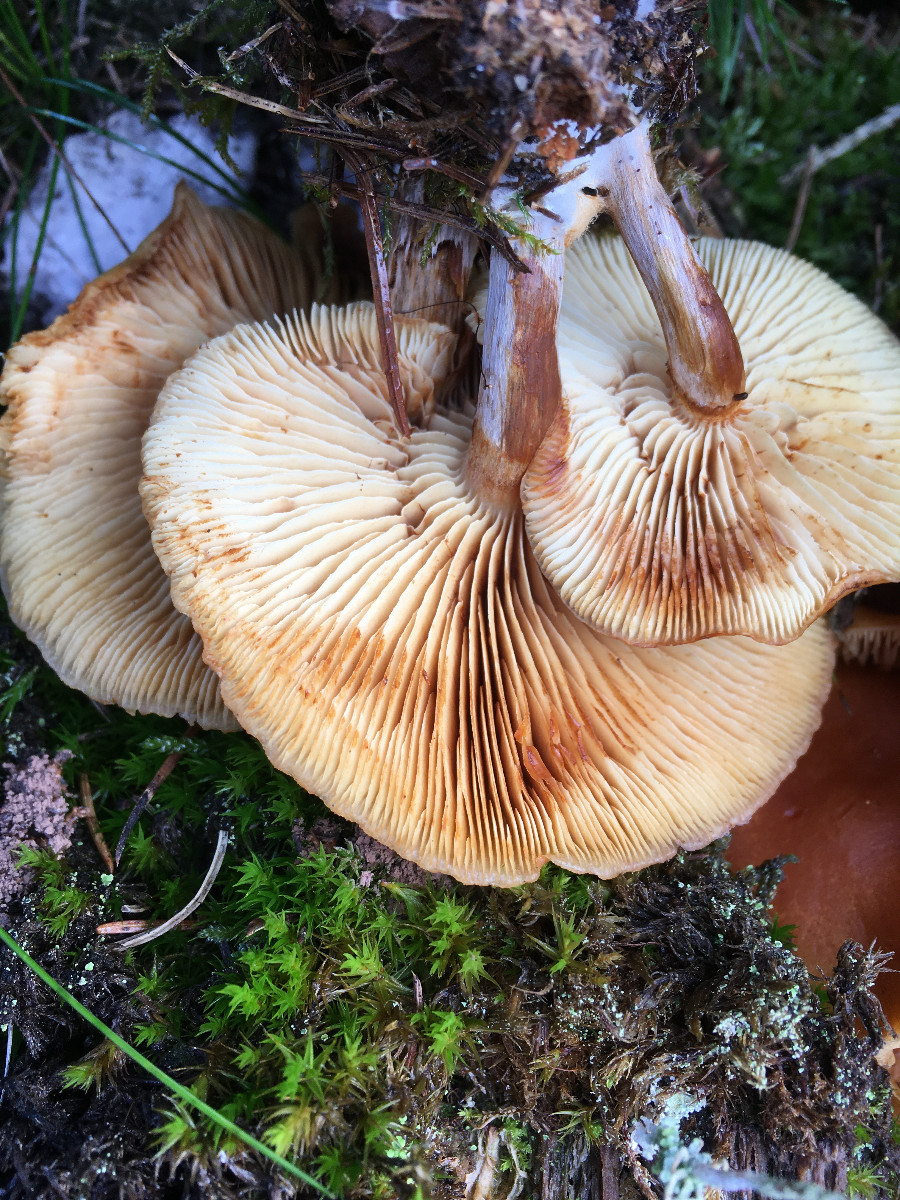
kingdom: Fungi
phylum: Basidiomycota
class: Agaricomycetes
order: Agaricales
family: Hymenogastraceae
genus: Gymnopilus
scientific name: Gymnopilus penetrans
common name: plettet flammehat
